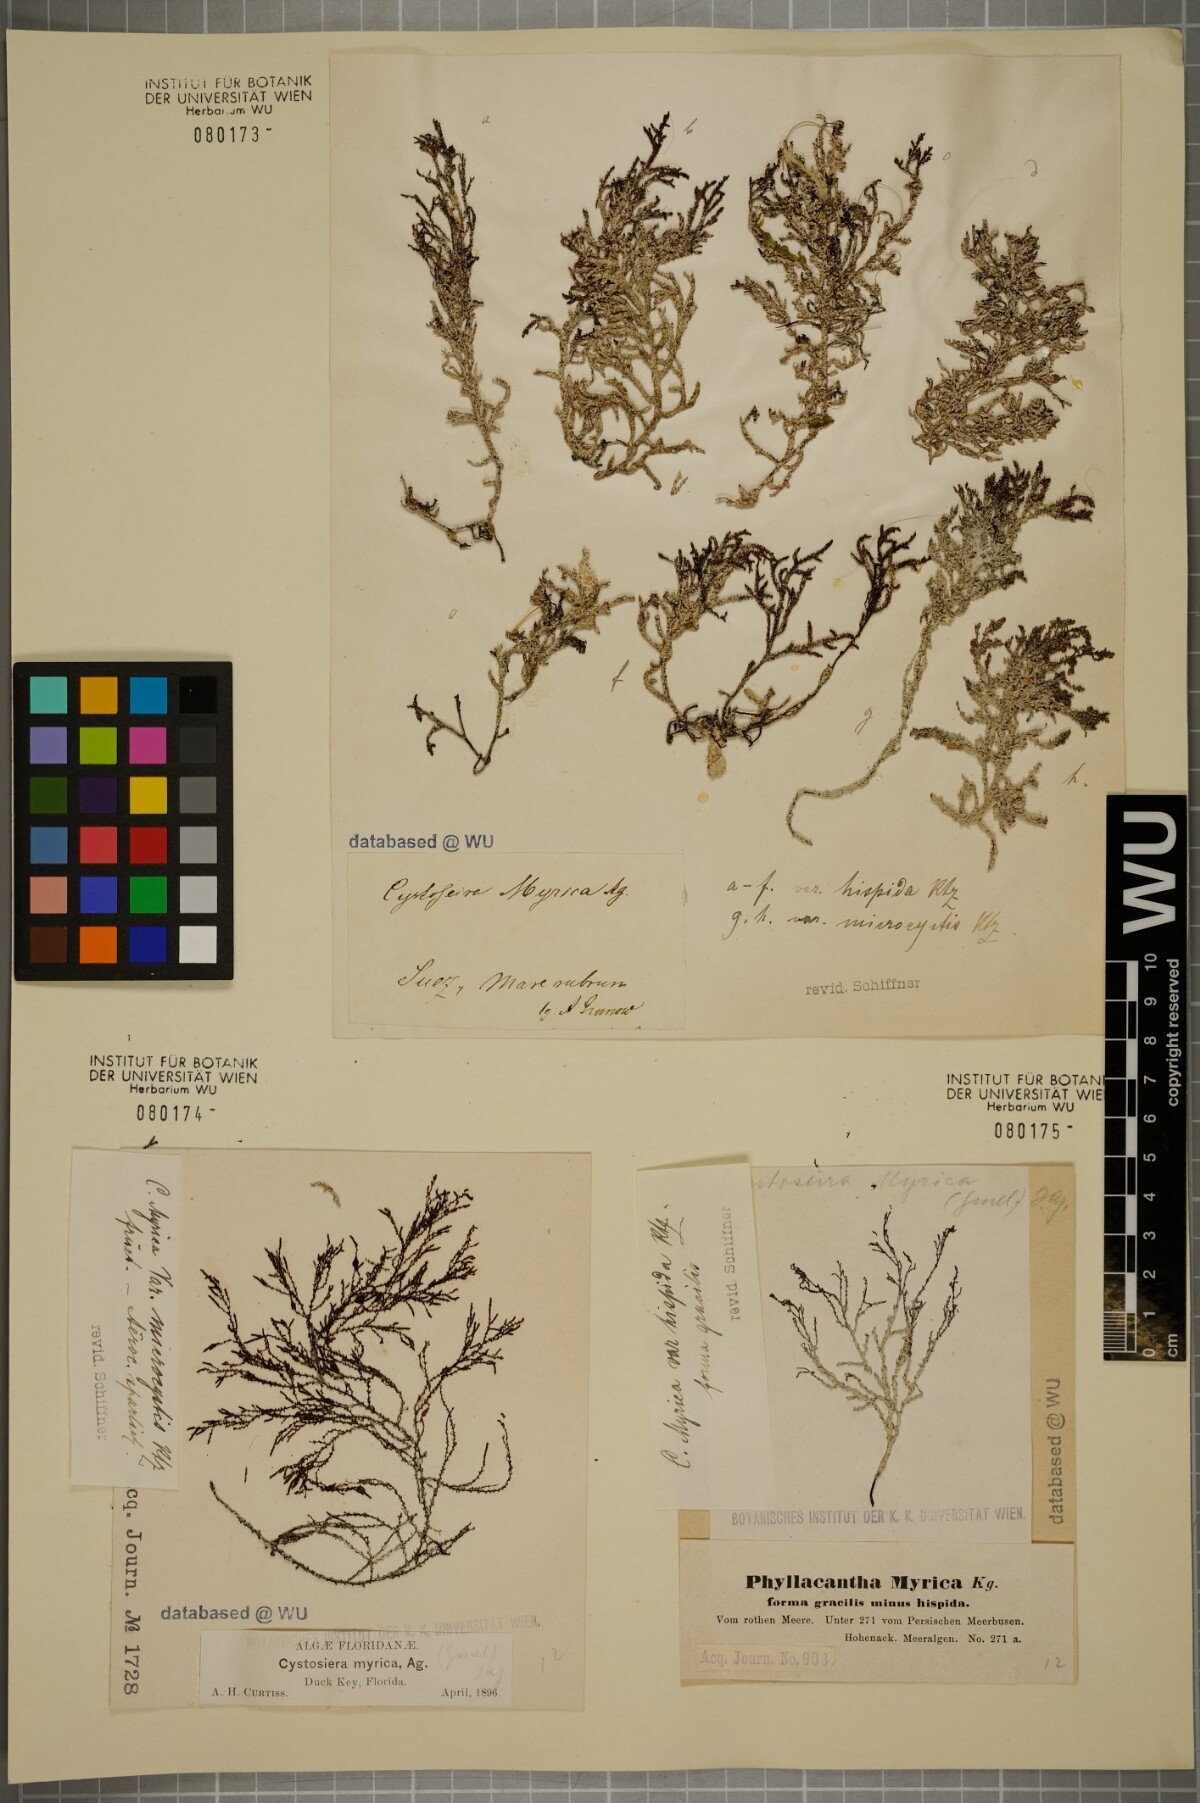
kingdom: Chromista
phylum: Ochrophyta
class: Phaeophyceae
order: Fucales
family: Sargassaceae
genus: Polycladia
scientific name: Polycladia myrica
